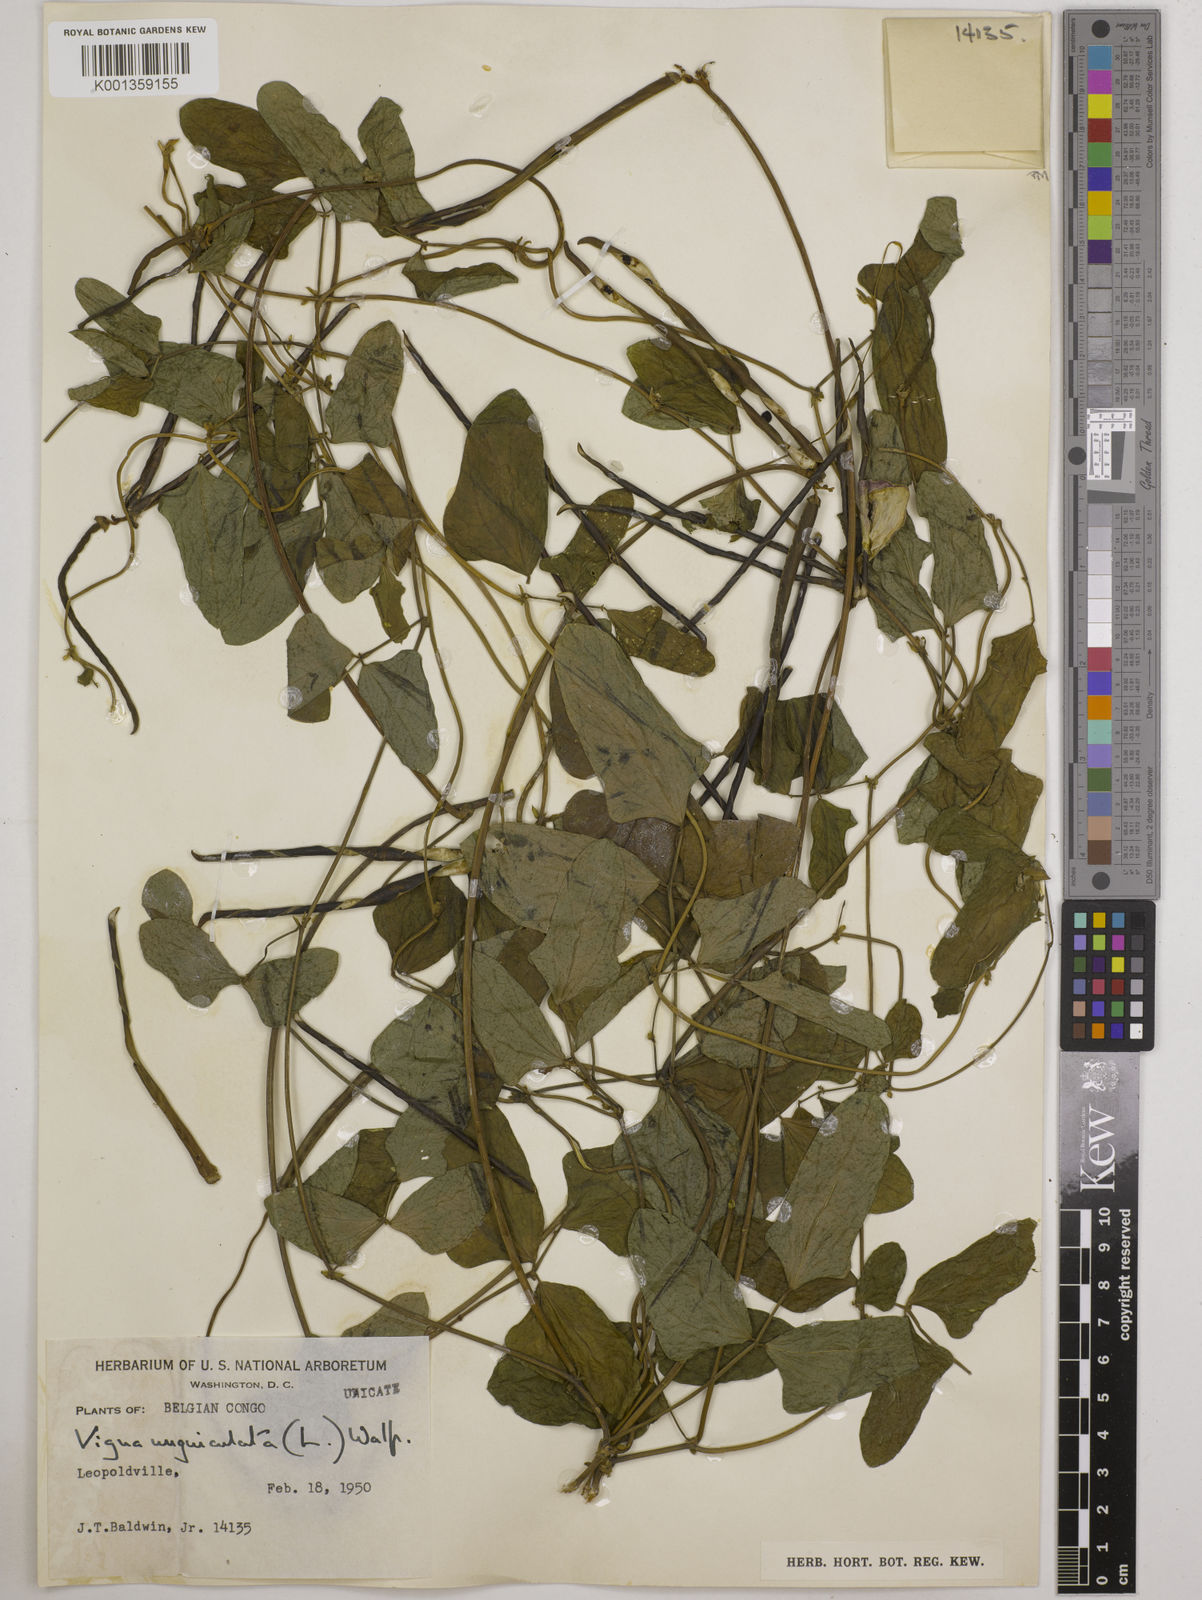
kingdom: Plantae
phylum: Tracheophyta
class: Magnoliopsida
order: Fabales
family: Fabaceae
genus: Vigna
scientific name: Vigna
